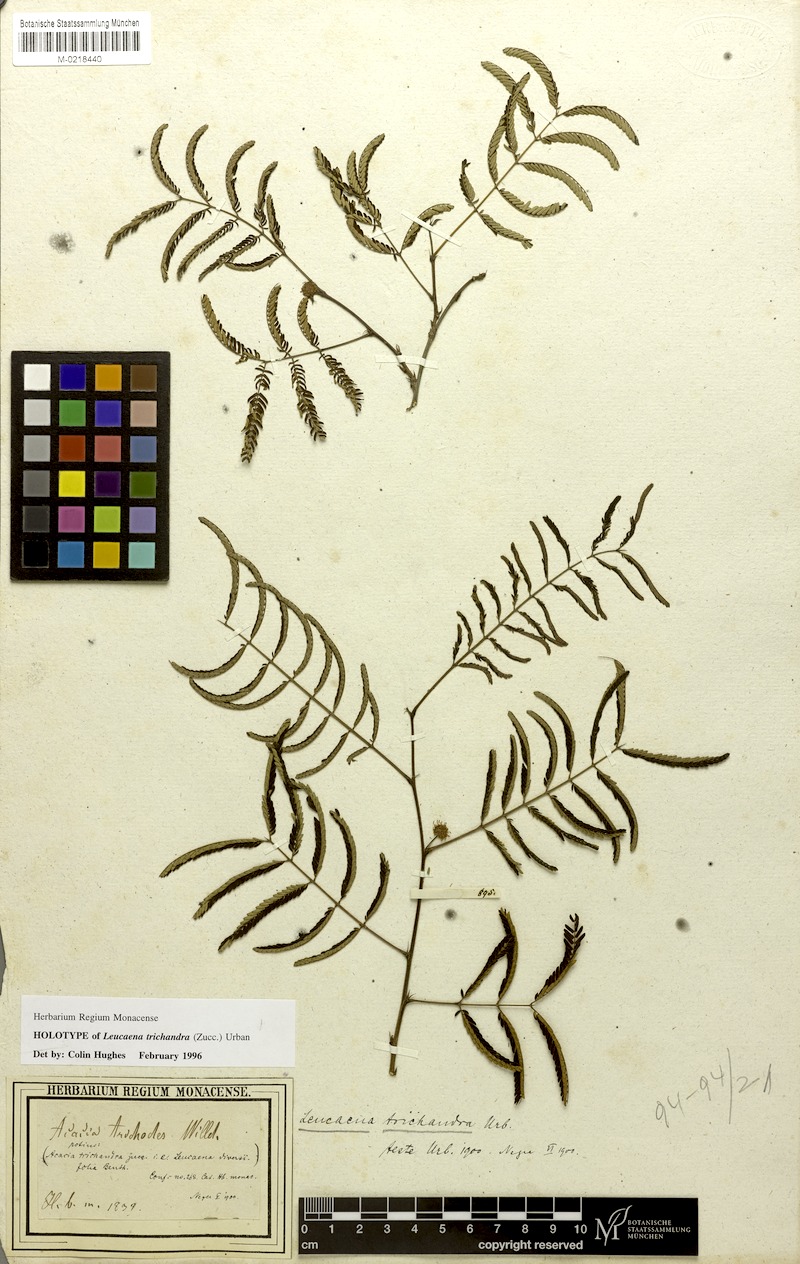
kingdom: Plantae
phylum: Tracheophyta
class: Magnoliopsida
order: Fabales
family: Fabaceae
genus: Leucaena
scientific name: Leucaena trichandra
